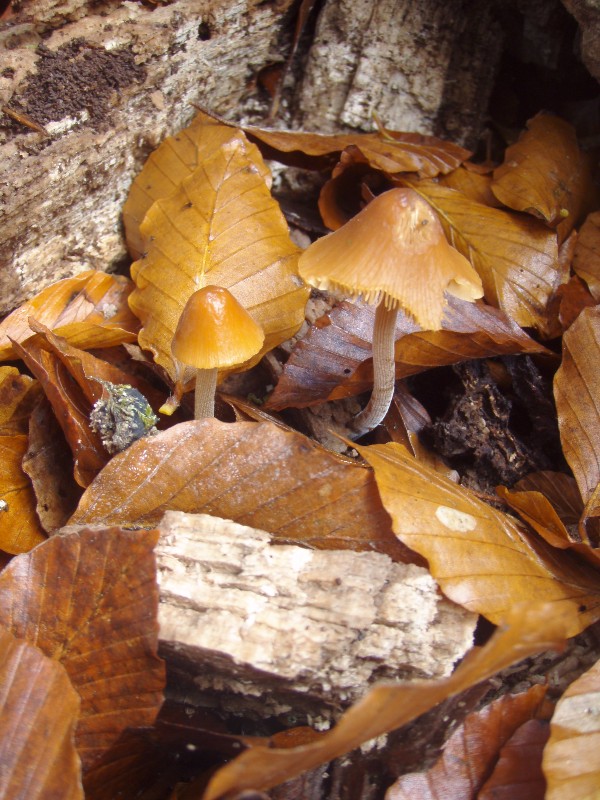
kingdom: Fungi
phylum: Basidiomycota
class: Agaricomycetes
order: Agaricales
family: Bolbitiaceae
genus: Conocybe
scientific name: Conocybe subpubescens
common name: krat-keglehat
